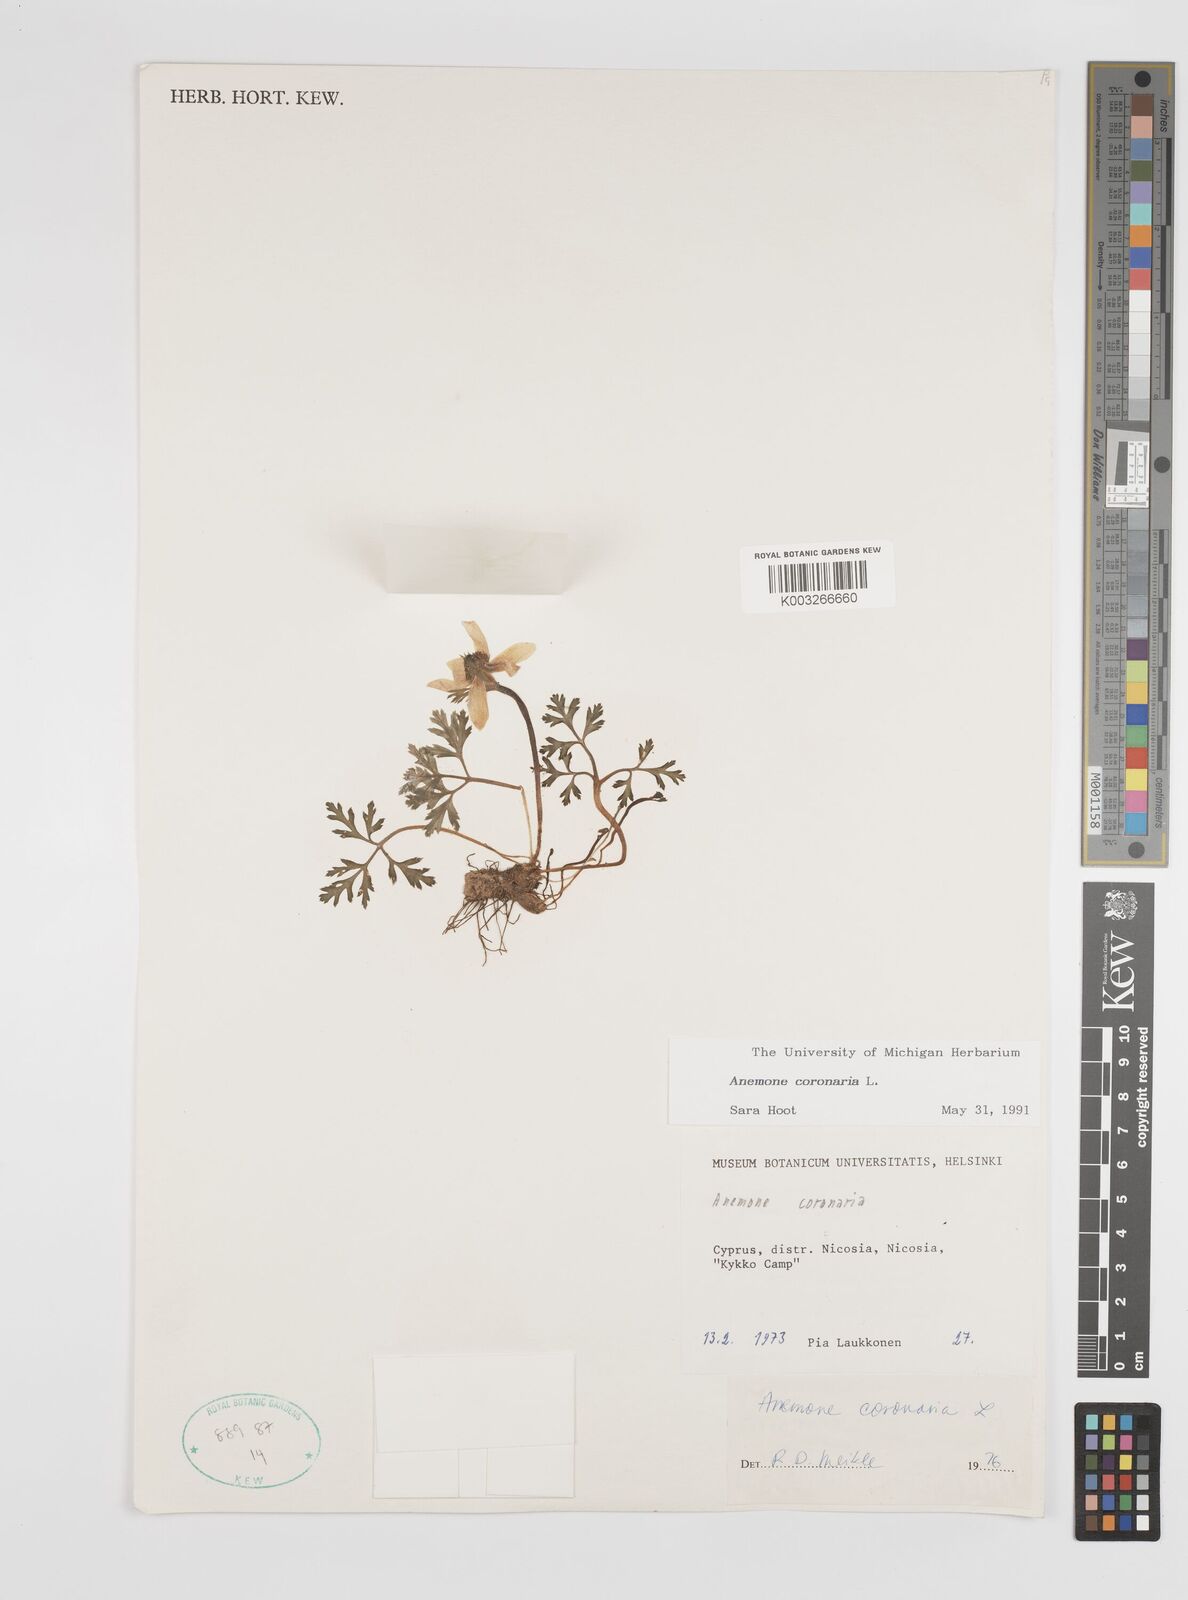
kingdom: Plantae
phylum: Tracheophyta
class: Magnoliopsida
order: Ranunculales
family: Ranunculaceae
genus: Anemone
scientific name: Anemone coronaria
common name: Poppy anemone
